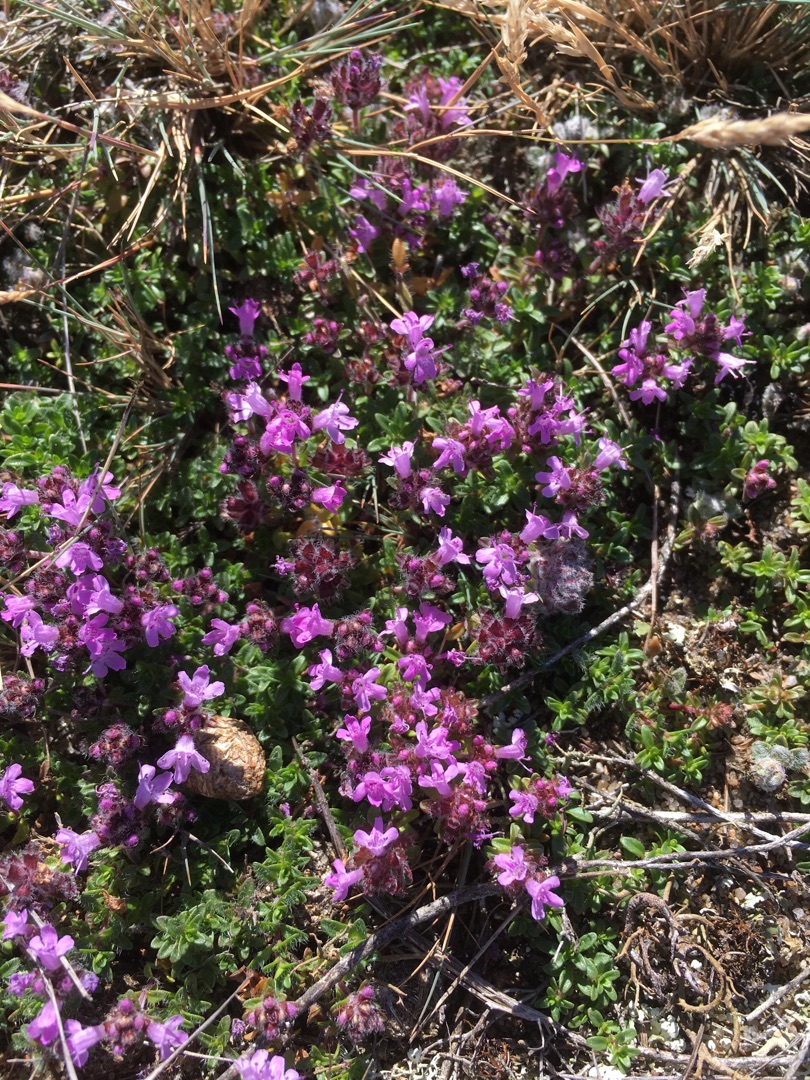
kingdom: Plantae
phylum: Tracheophyta
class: Magnoliopsida
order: Lamiales
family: Lamiaceae
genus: Thymus
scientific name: Thymus serpyllum
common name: Smalbladet timian
